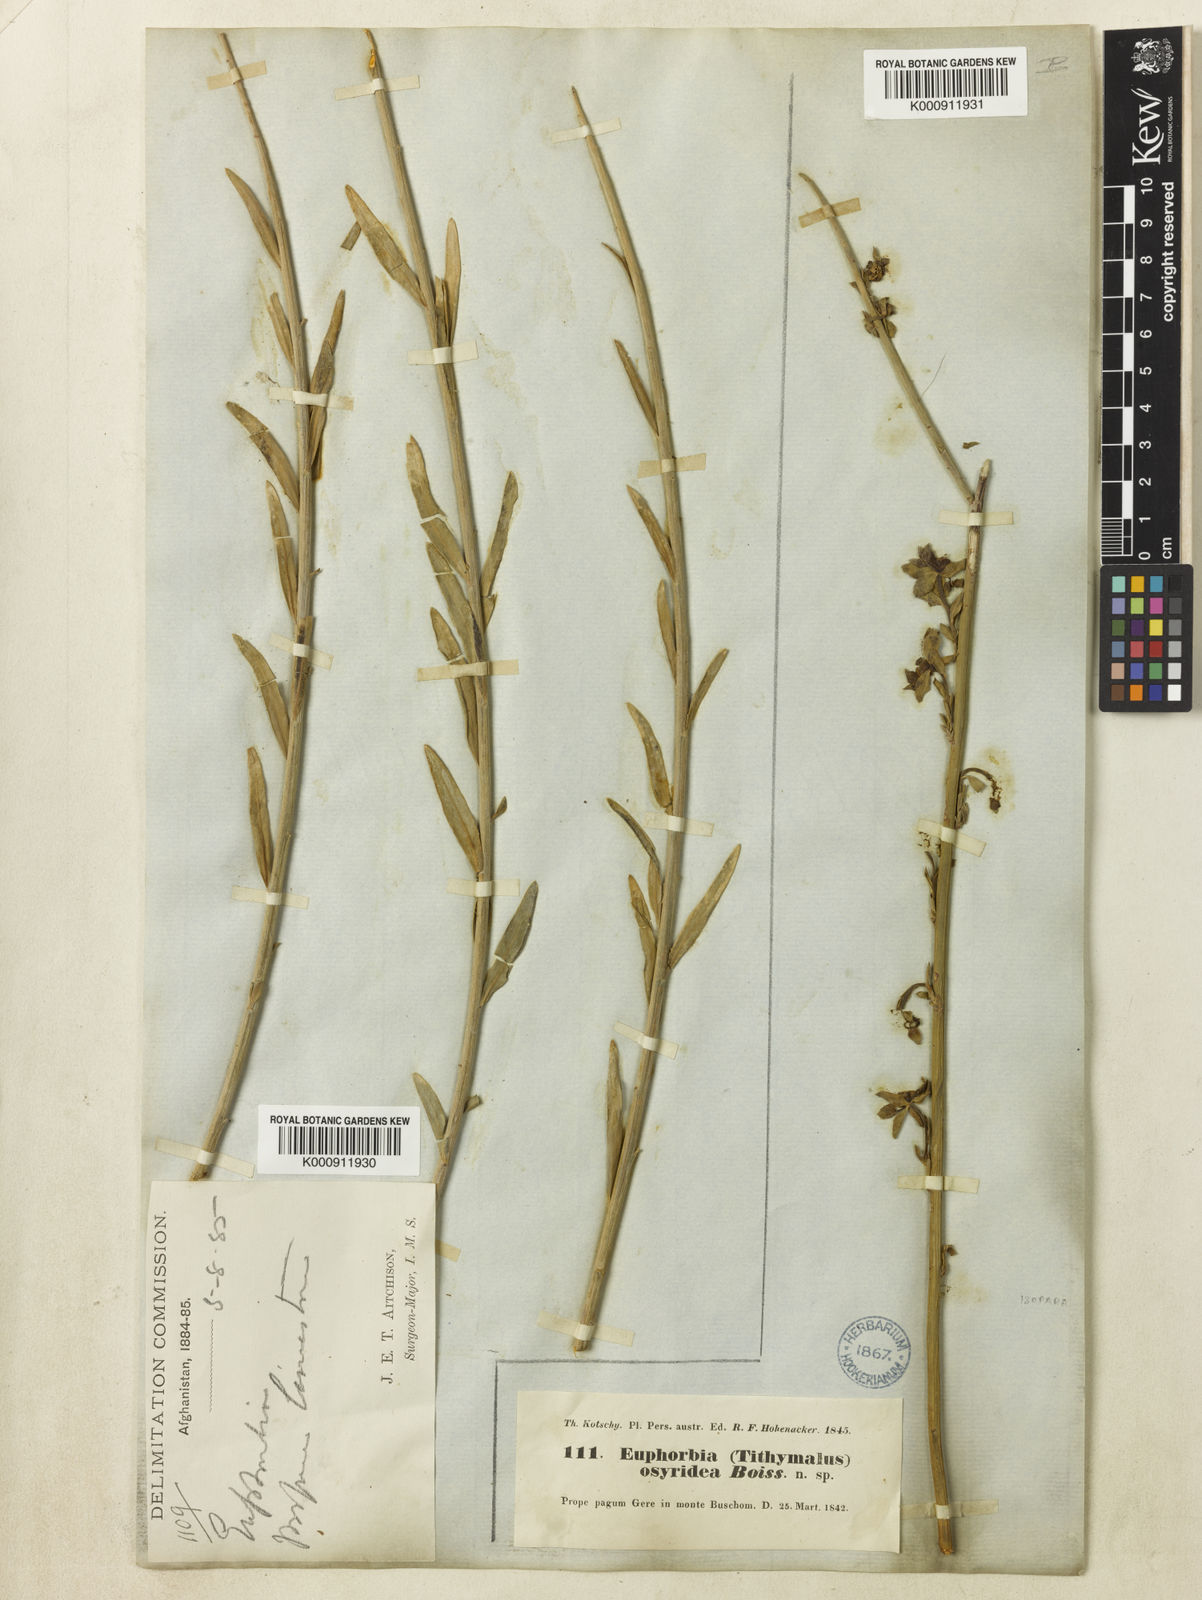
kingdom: Plantae
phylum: Tracheophyta
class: Magnoliopsida
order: Malpighiales
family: Euphorbiaceae
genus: Euphorbia
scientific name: Euphorbia osyridea
